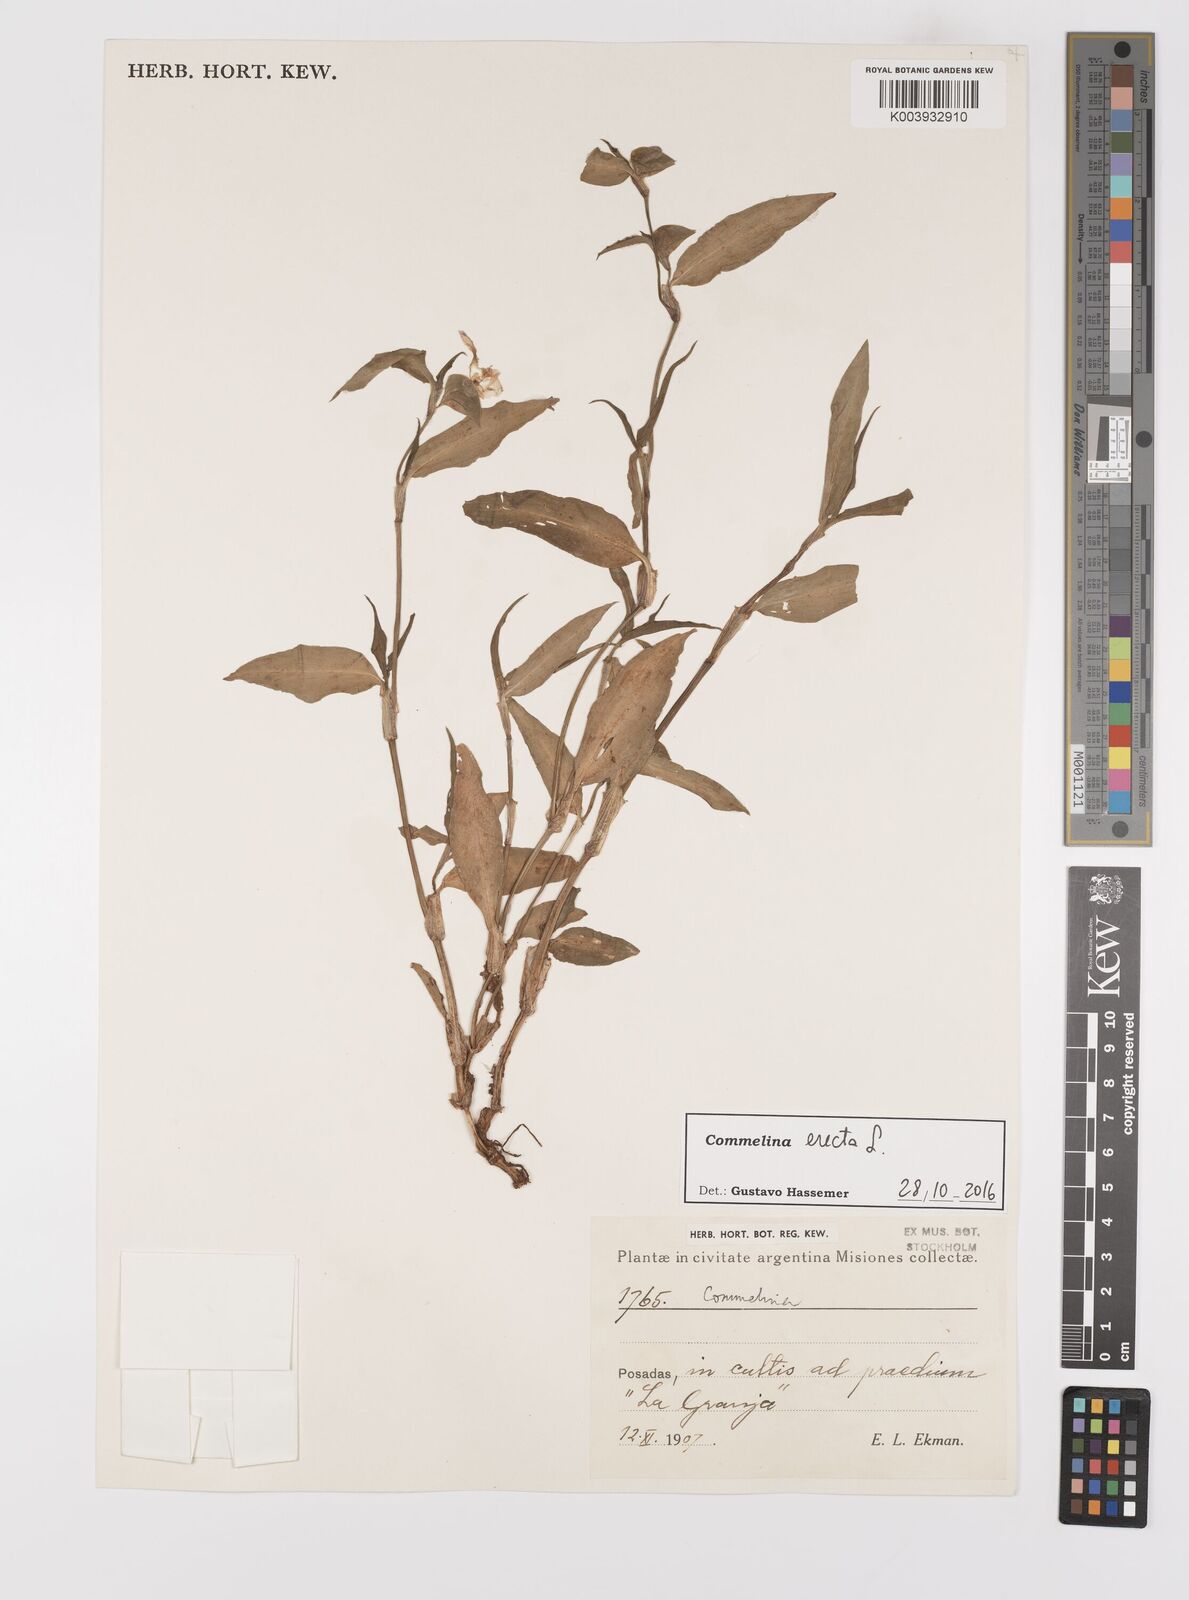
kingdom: Plantae
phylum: Tracheophyta
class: Liliopsida
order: Commelinales
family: Commelinaceae
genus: Commelina
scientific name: Commelina erecta
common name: Blousel blommetjie
